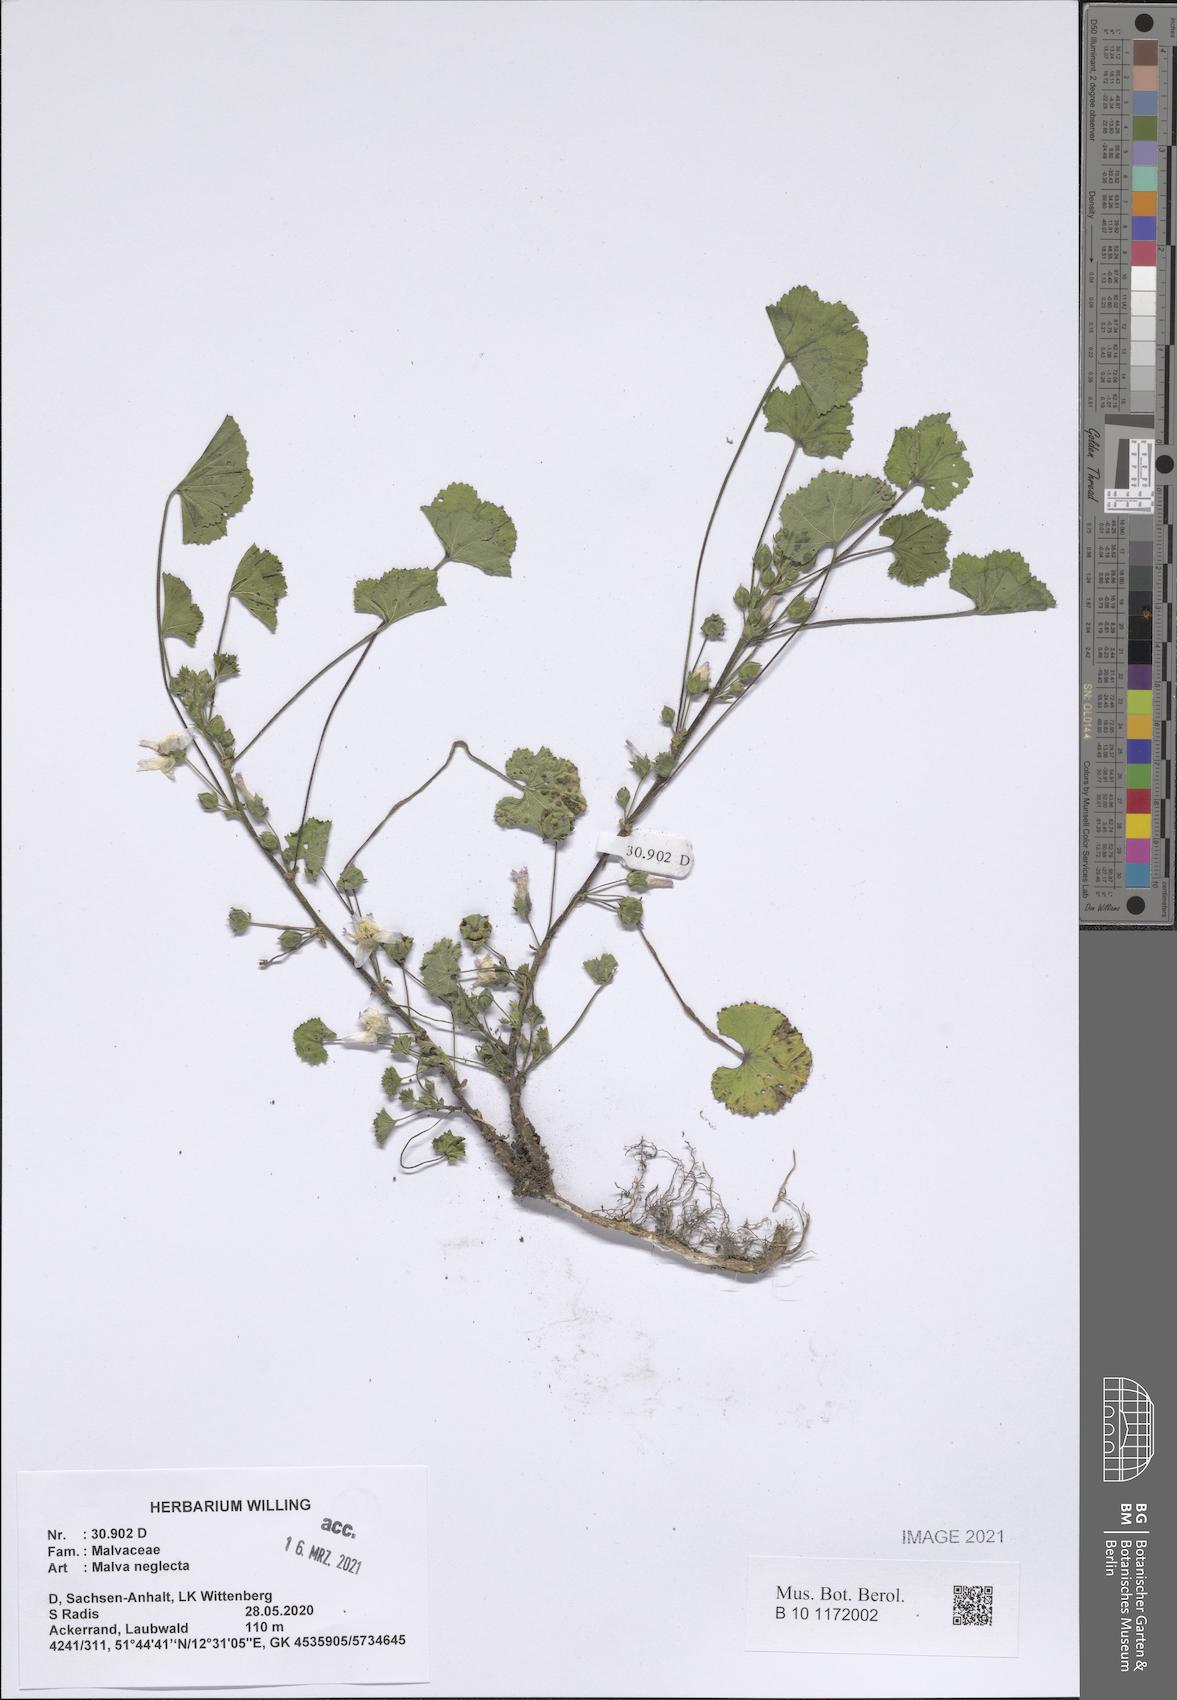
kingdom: Plantae
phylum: Tracheophyta
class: Magnoliopsida
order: Malvales
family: Malvaceae
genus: Malva
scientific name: Malva neglecta
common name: Common mallow
